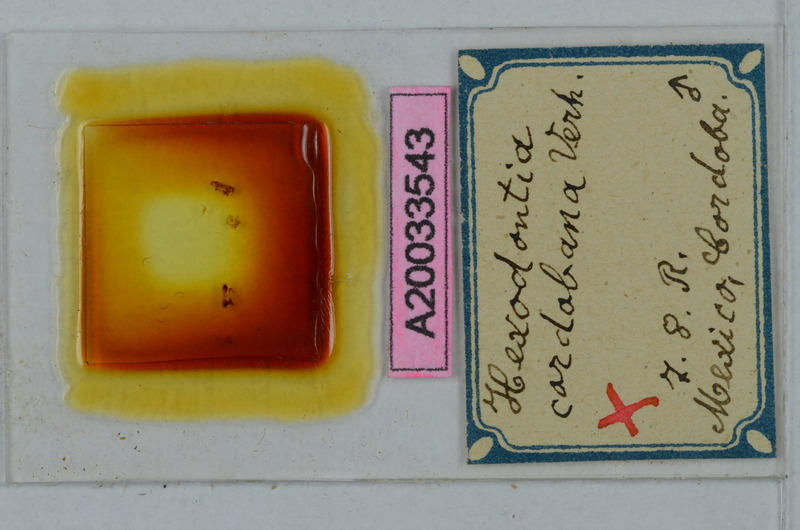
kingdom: Animalia
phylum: Arthropoda
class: Diplopoda
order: Polydesmida
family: Cryptodesmidae
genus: Peridontodesmus
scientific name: Peridontodesmus cordobanus
